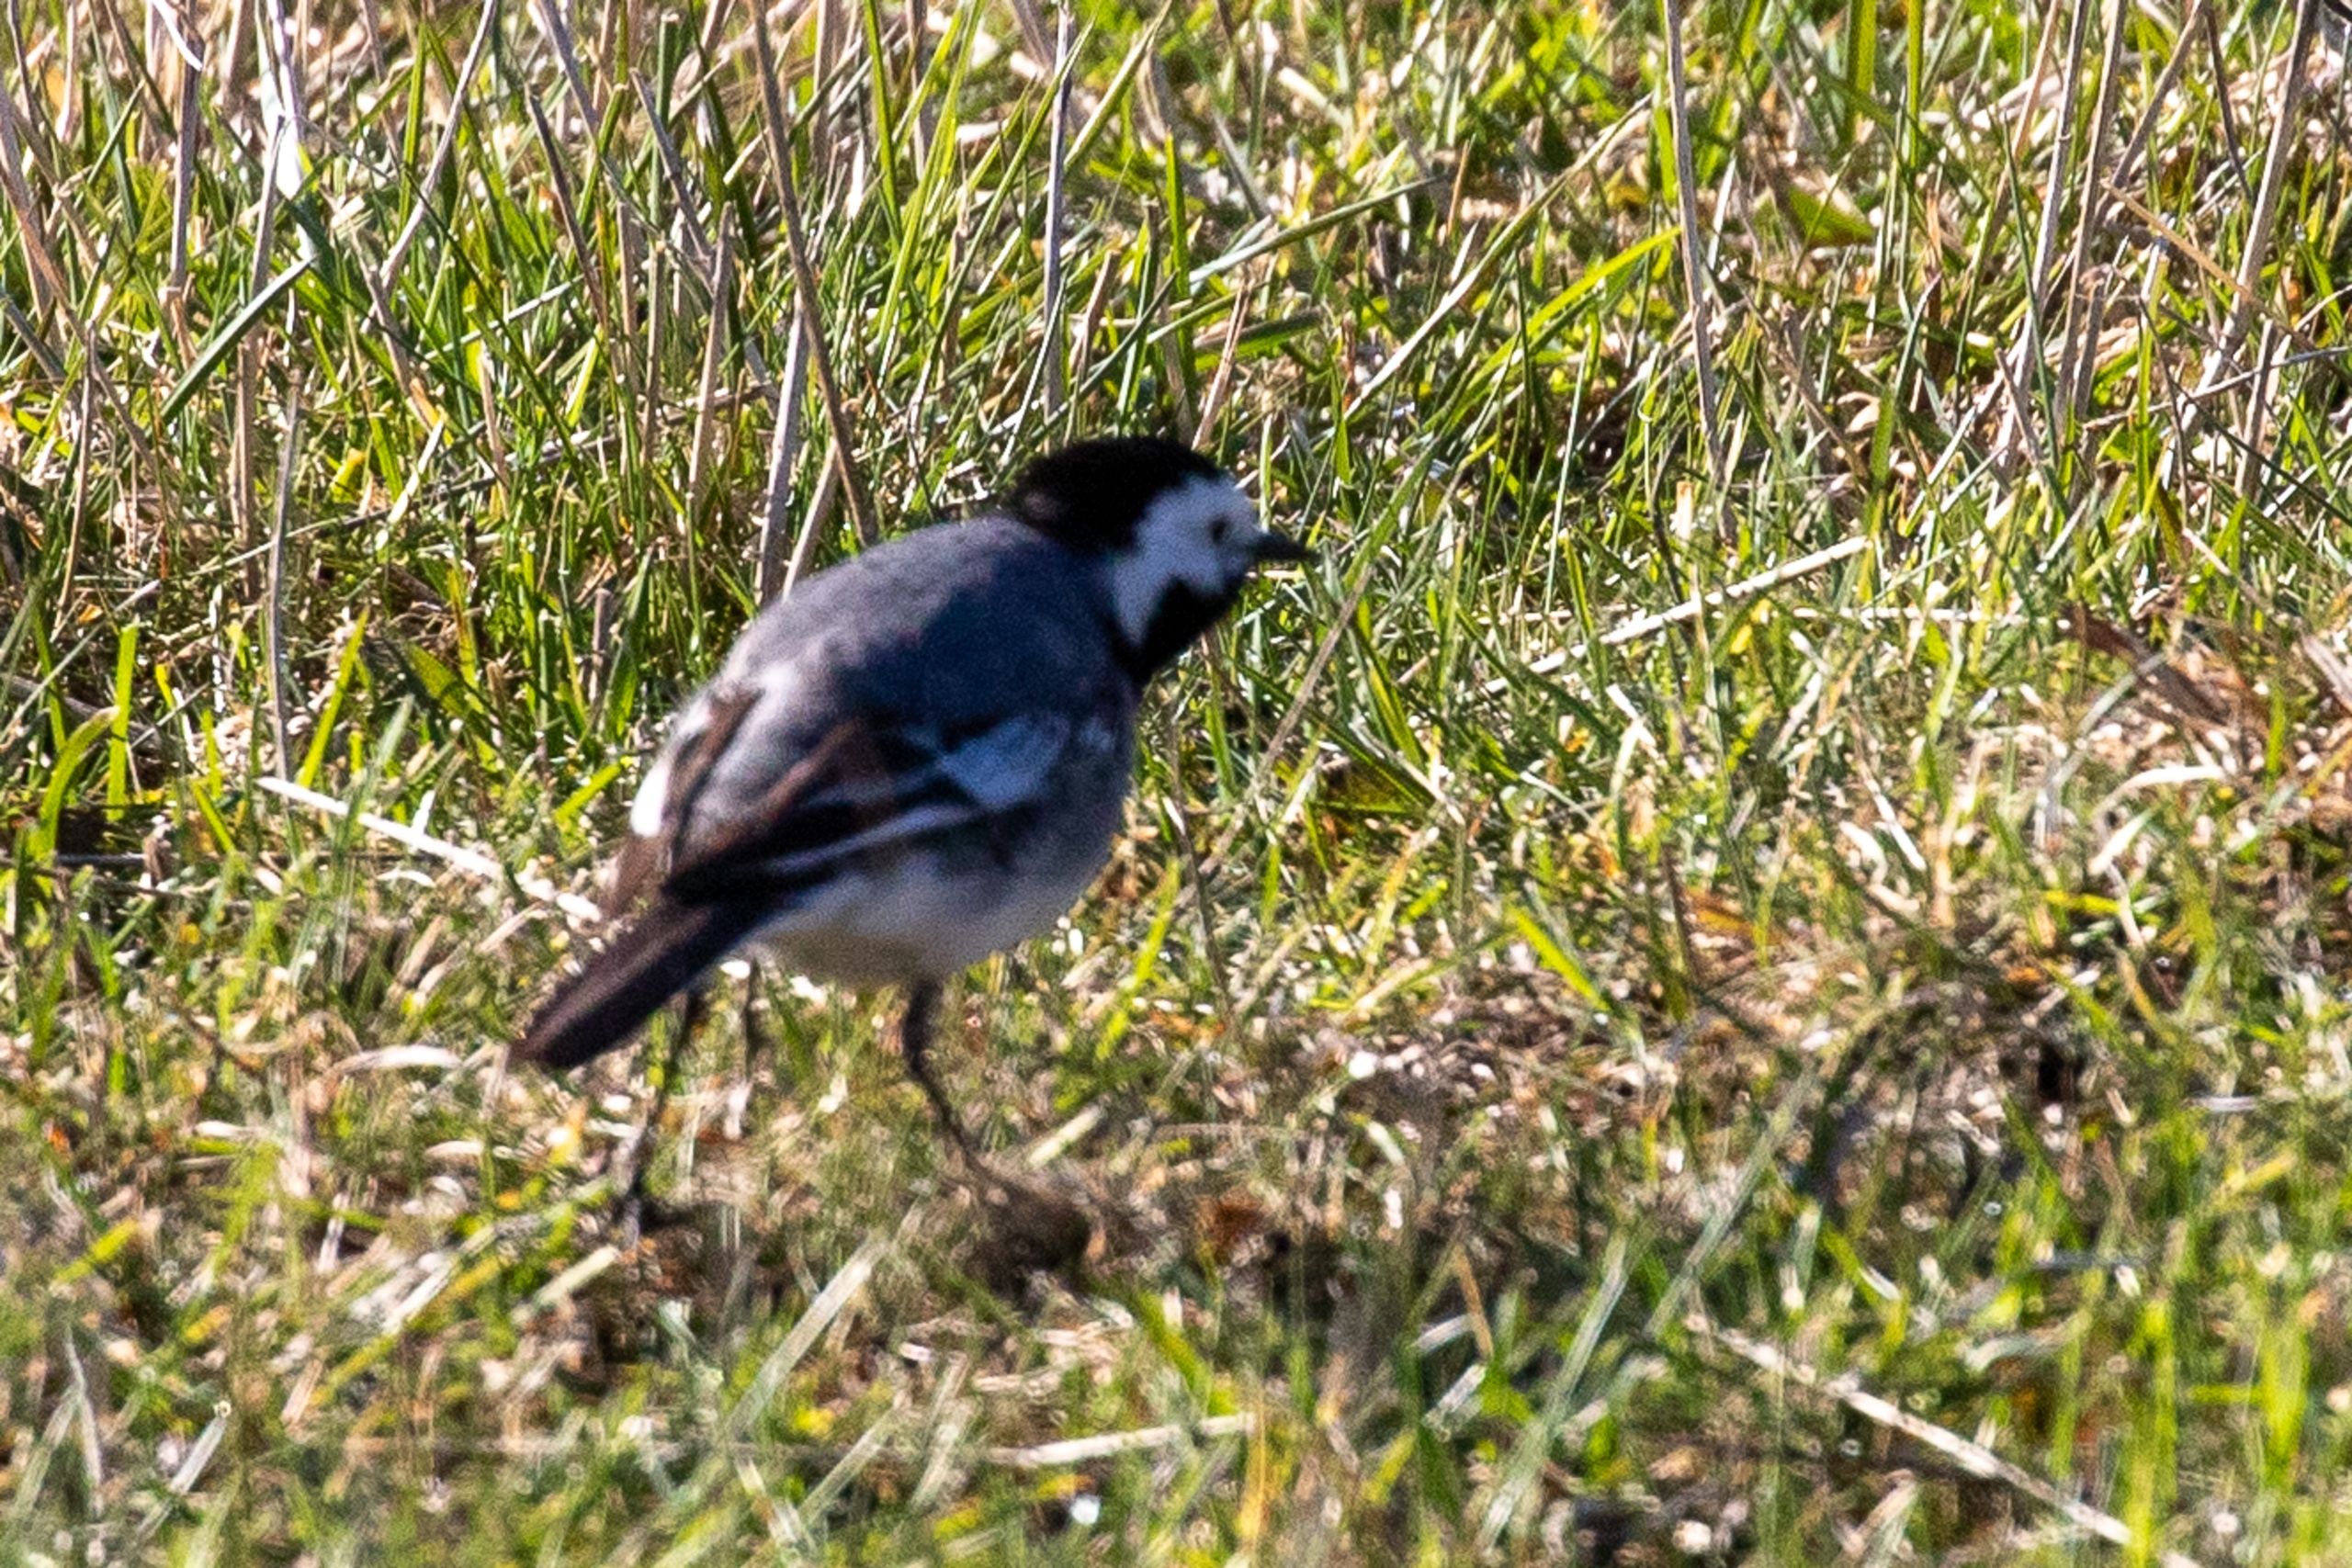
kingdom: Animalia
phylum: Chordata
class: Aves
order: Passeriformes
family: Motacillidae
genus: Motacilla
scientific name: Motacilla alba
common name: Hvid vipstjert
